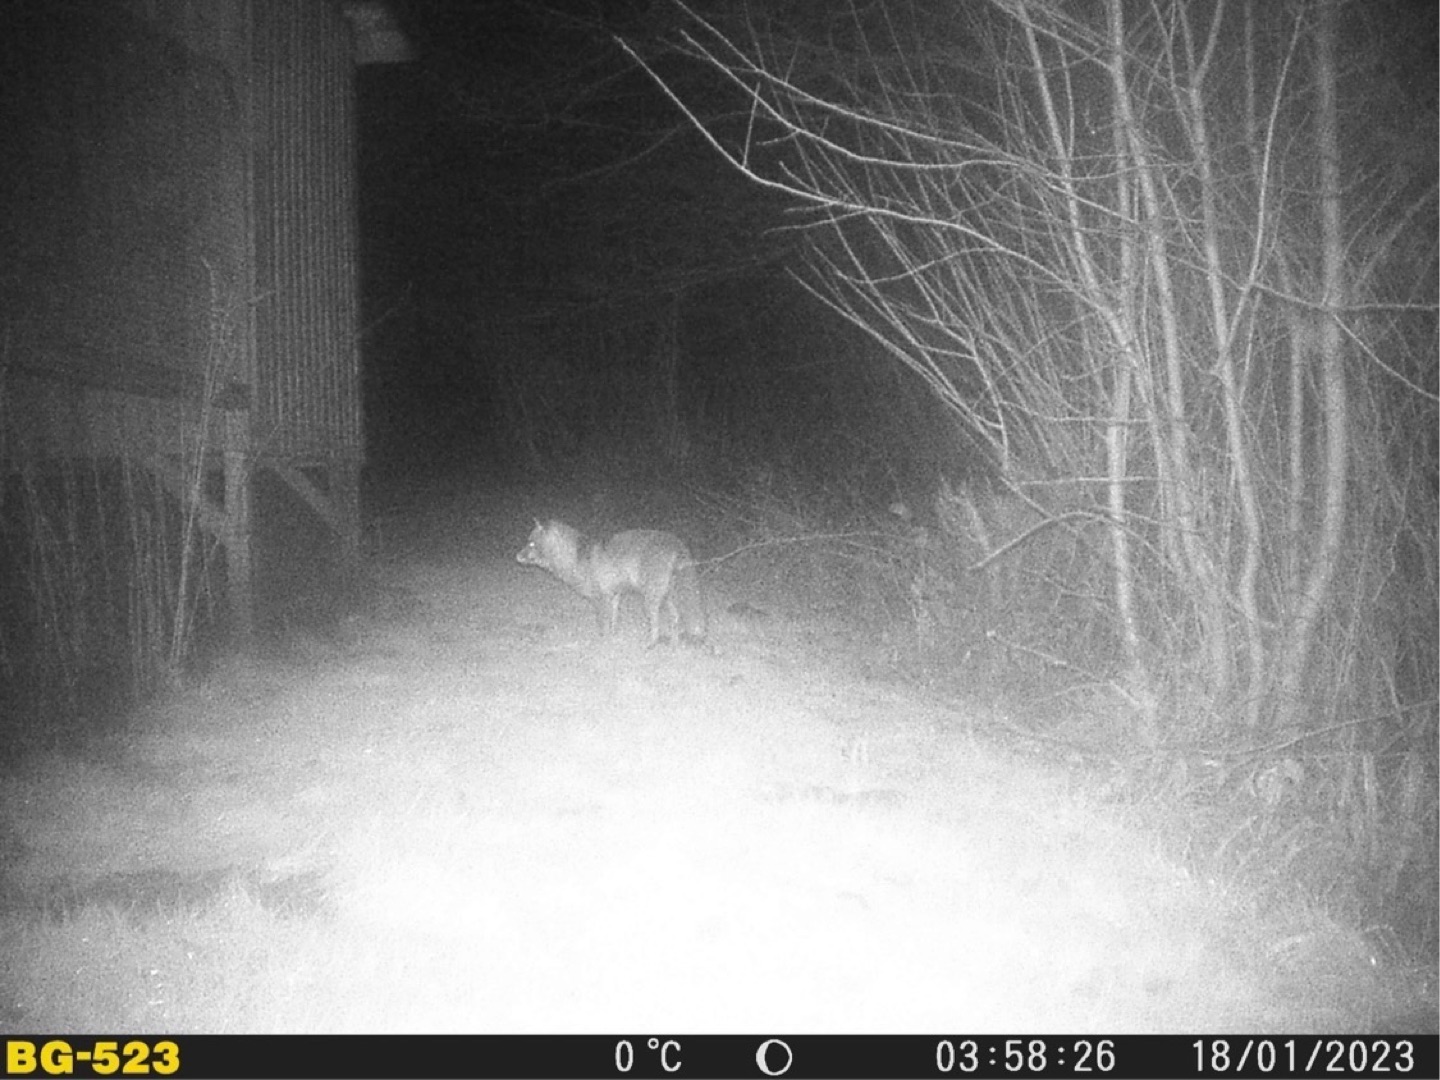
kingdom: Animalia
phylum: Chordata
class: Mammalia
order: Carnivora
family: Canidae
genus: Vulpes
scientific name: Vulpes vulpes
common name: Ræv
